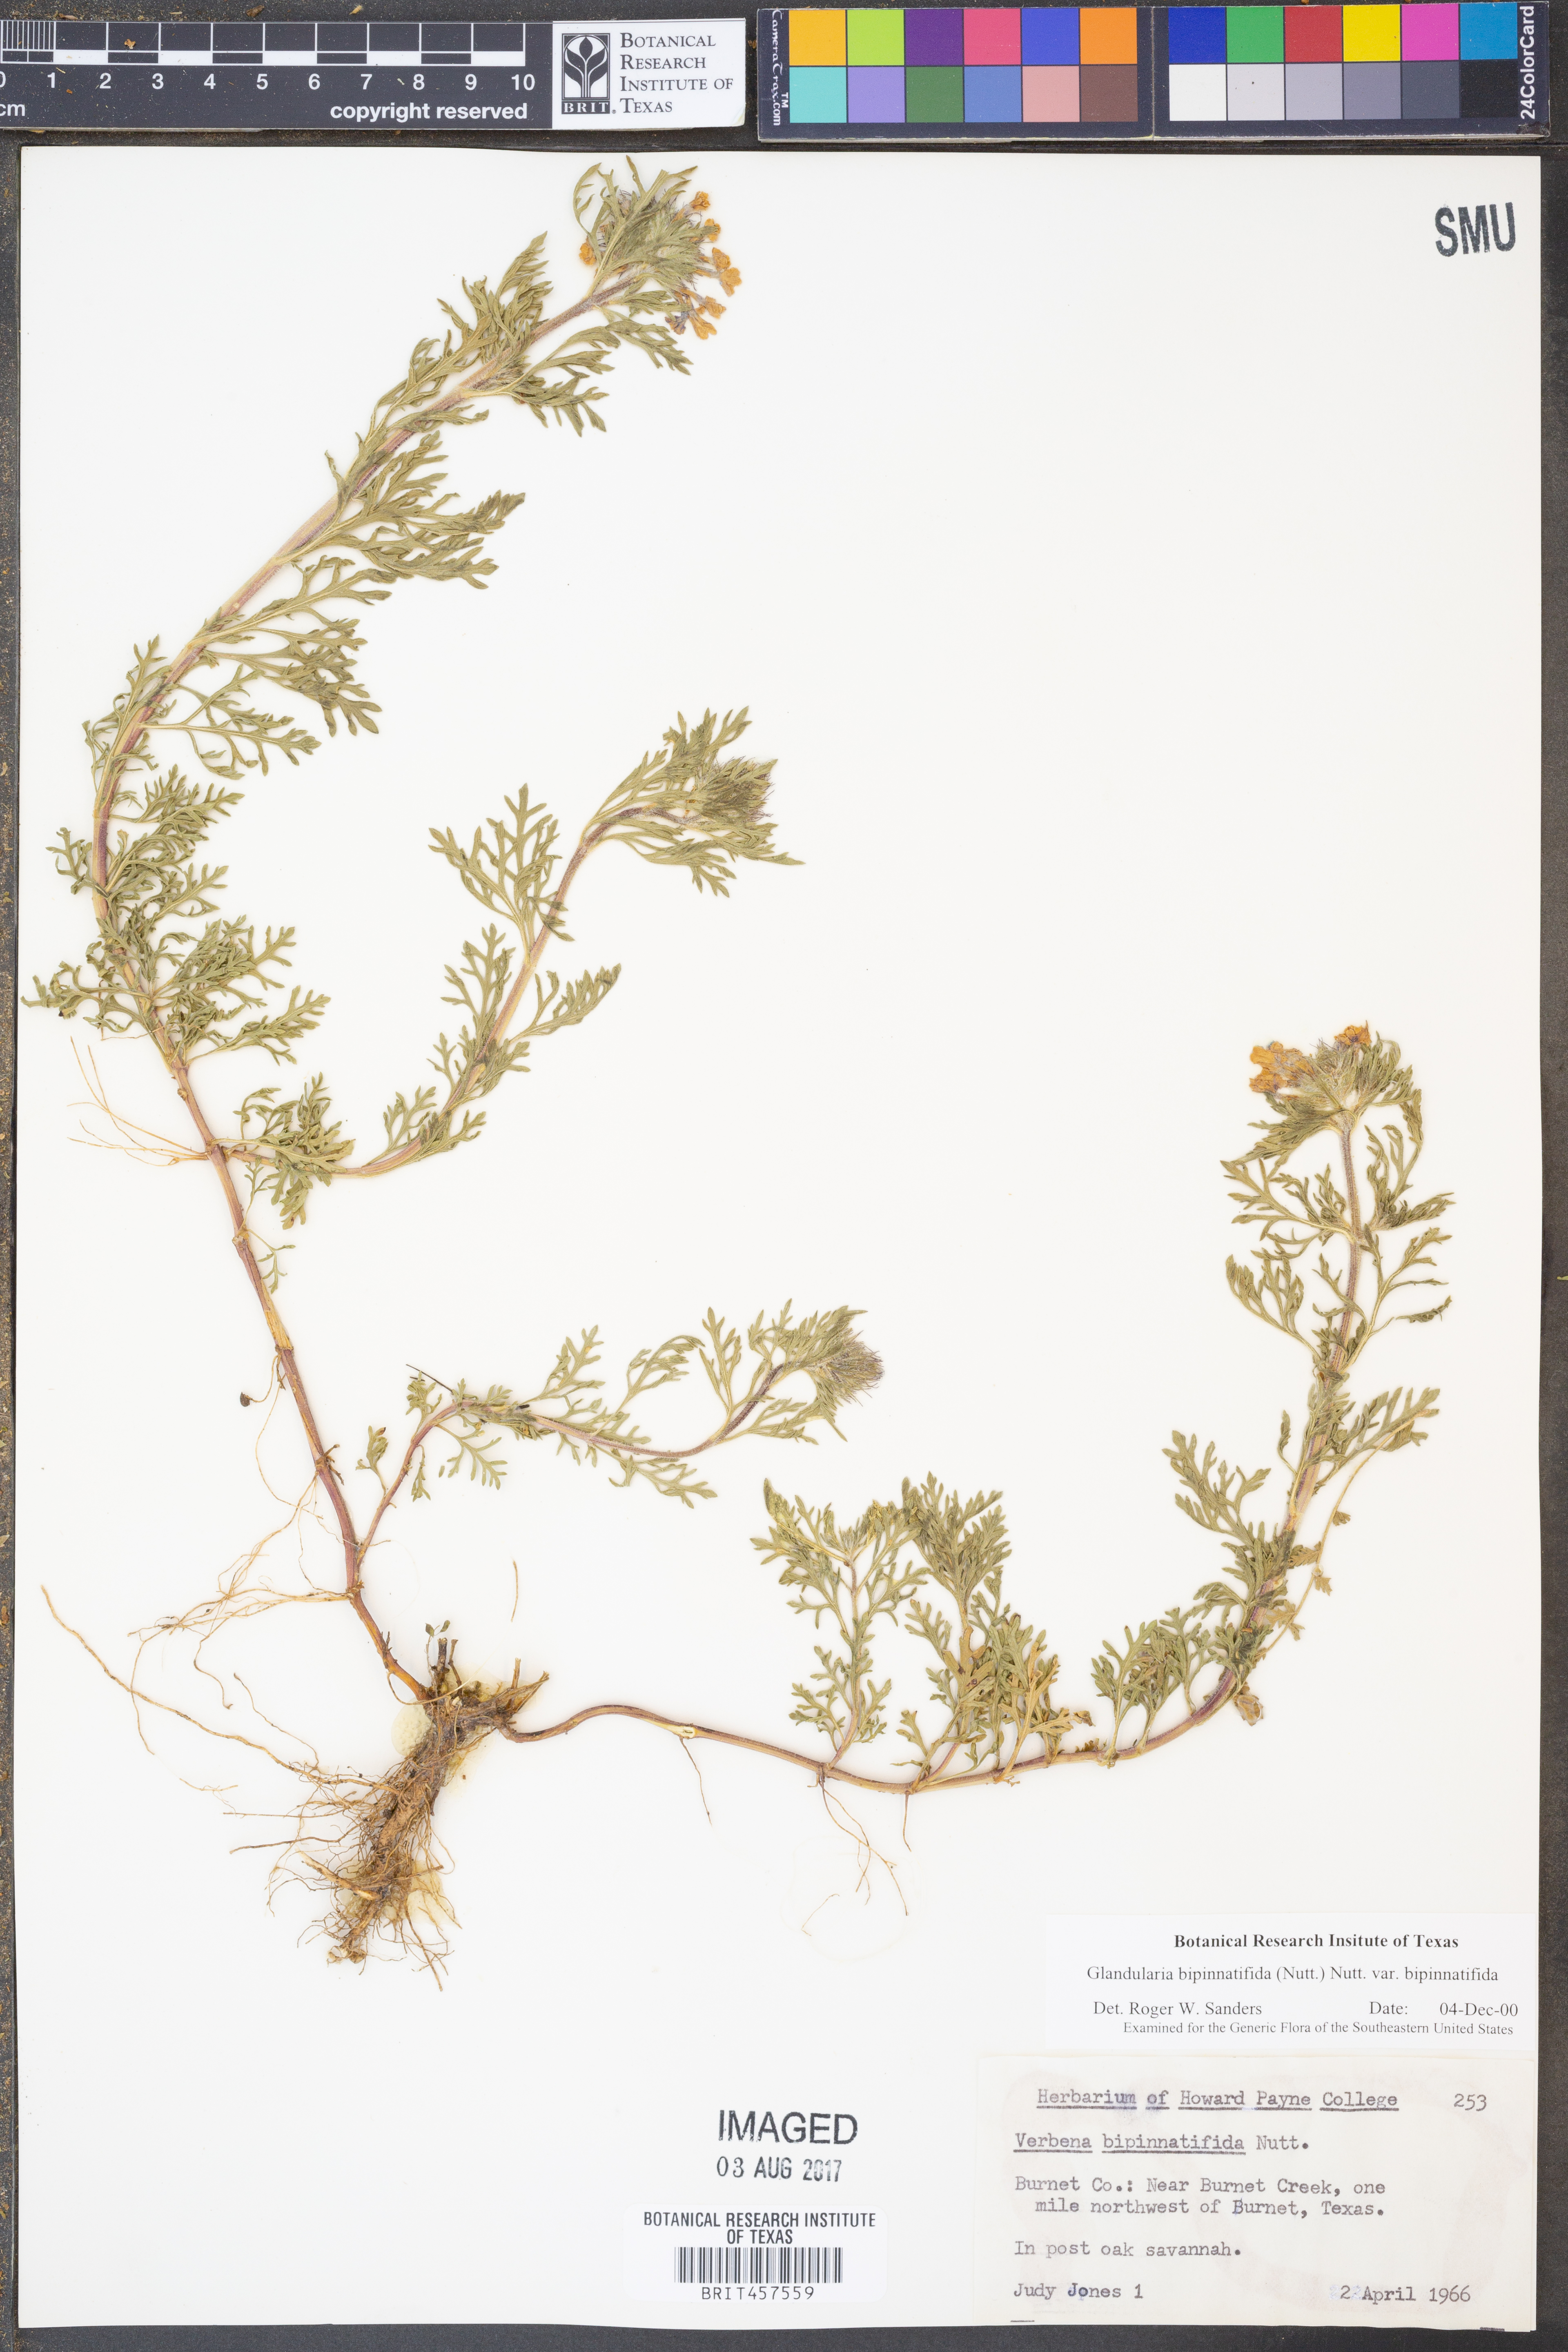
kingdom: Plantae
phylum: Tracheophyta
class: Magnoliopsida
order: Lamiales
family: Verbenaceae
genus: Verbena
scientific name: Verbena bipinnatifida
